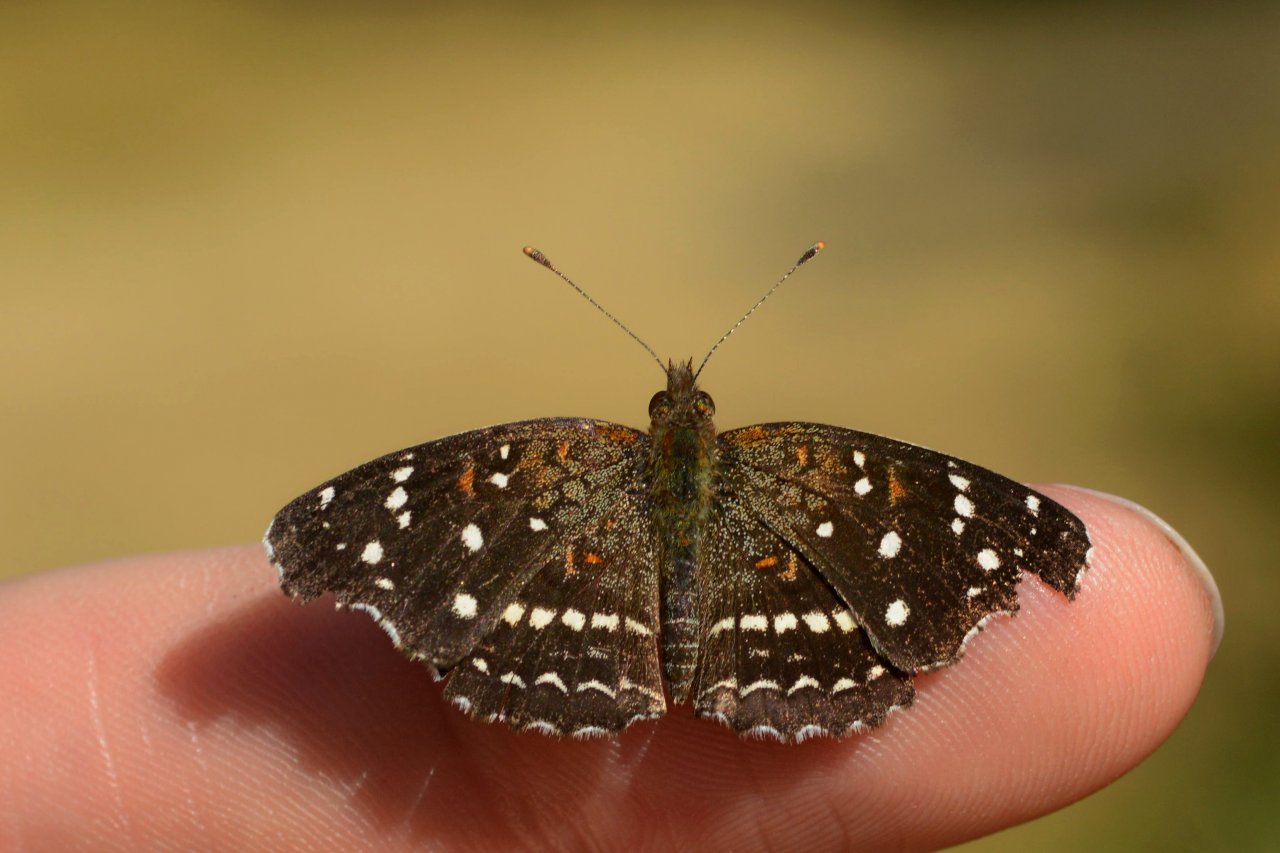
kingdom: Animalia
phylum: Arthropoda
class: Insecta
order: Lepidoptera
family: Nymphalidae
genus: Anthanassa
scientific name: Anthanassa texana
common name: Texan Crescent
